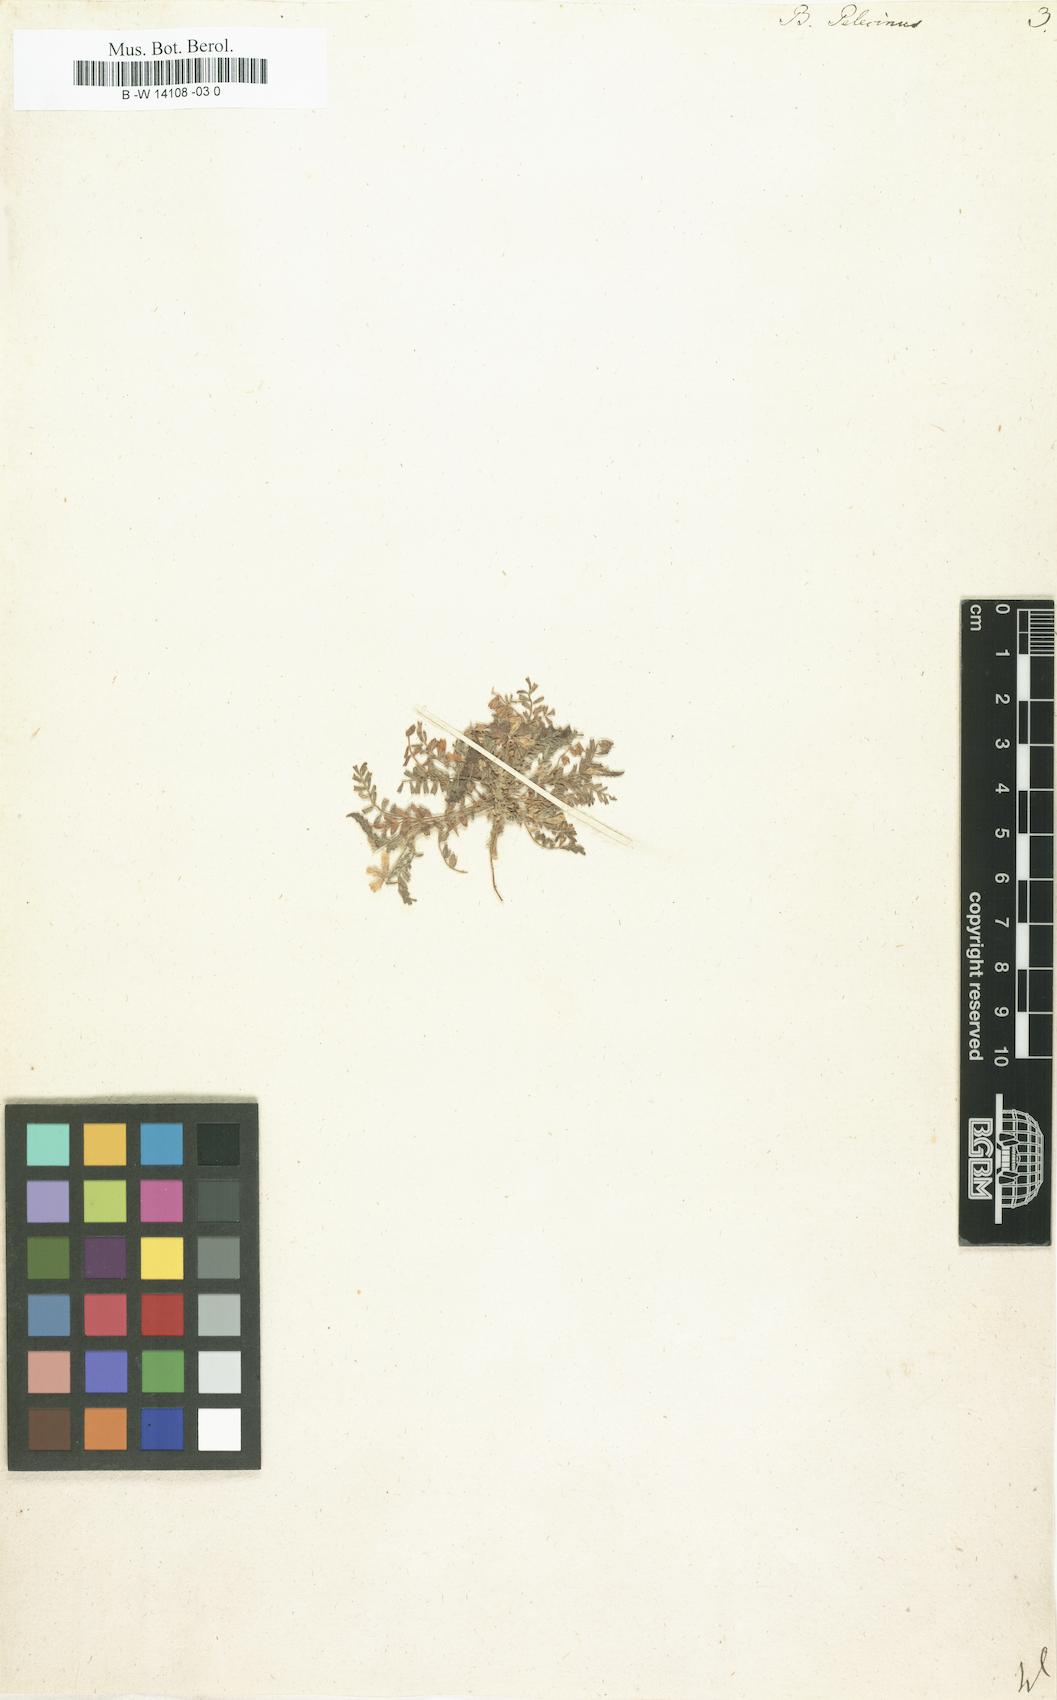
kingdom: Plantae
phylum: Tracheophyta
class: Magnoliopsida
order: Fabales
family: Fabaceae
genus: Biserrula
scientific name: Biserrula pelecinus
